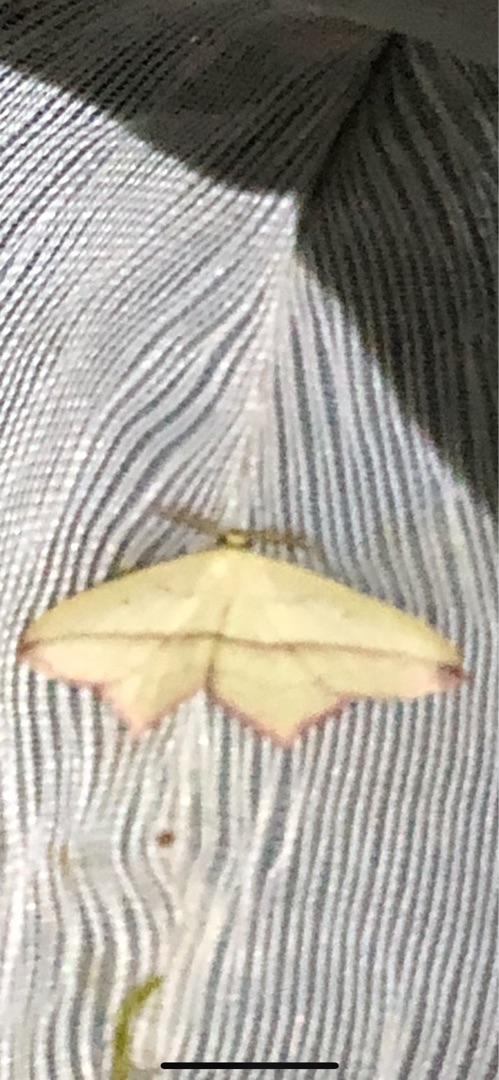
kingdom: Animalia
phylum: Arthropoda
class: Insecta
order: Lepidoptera
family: Geometridae
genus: Timandra
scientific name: Timandra comae
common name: Gul syremåler
